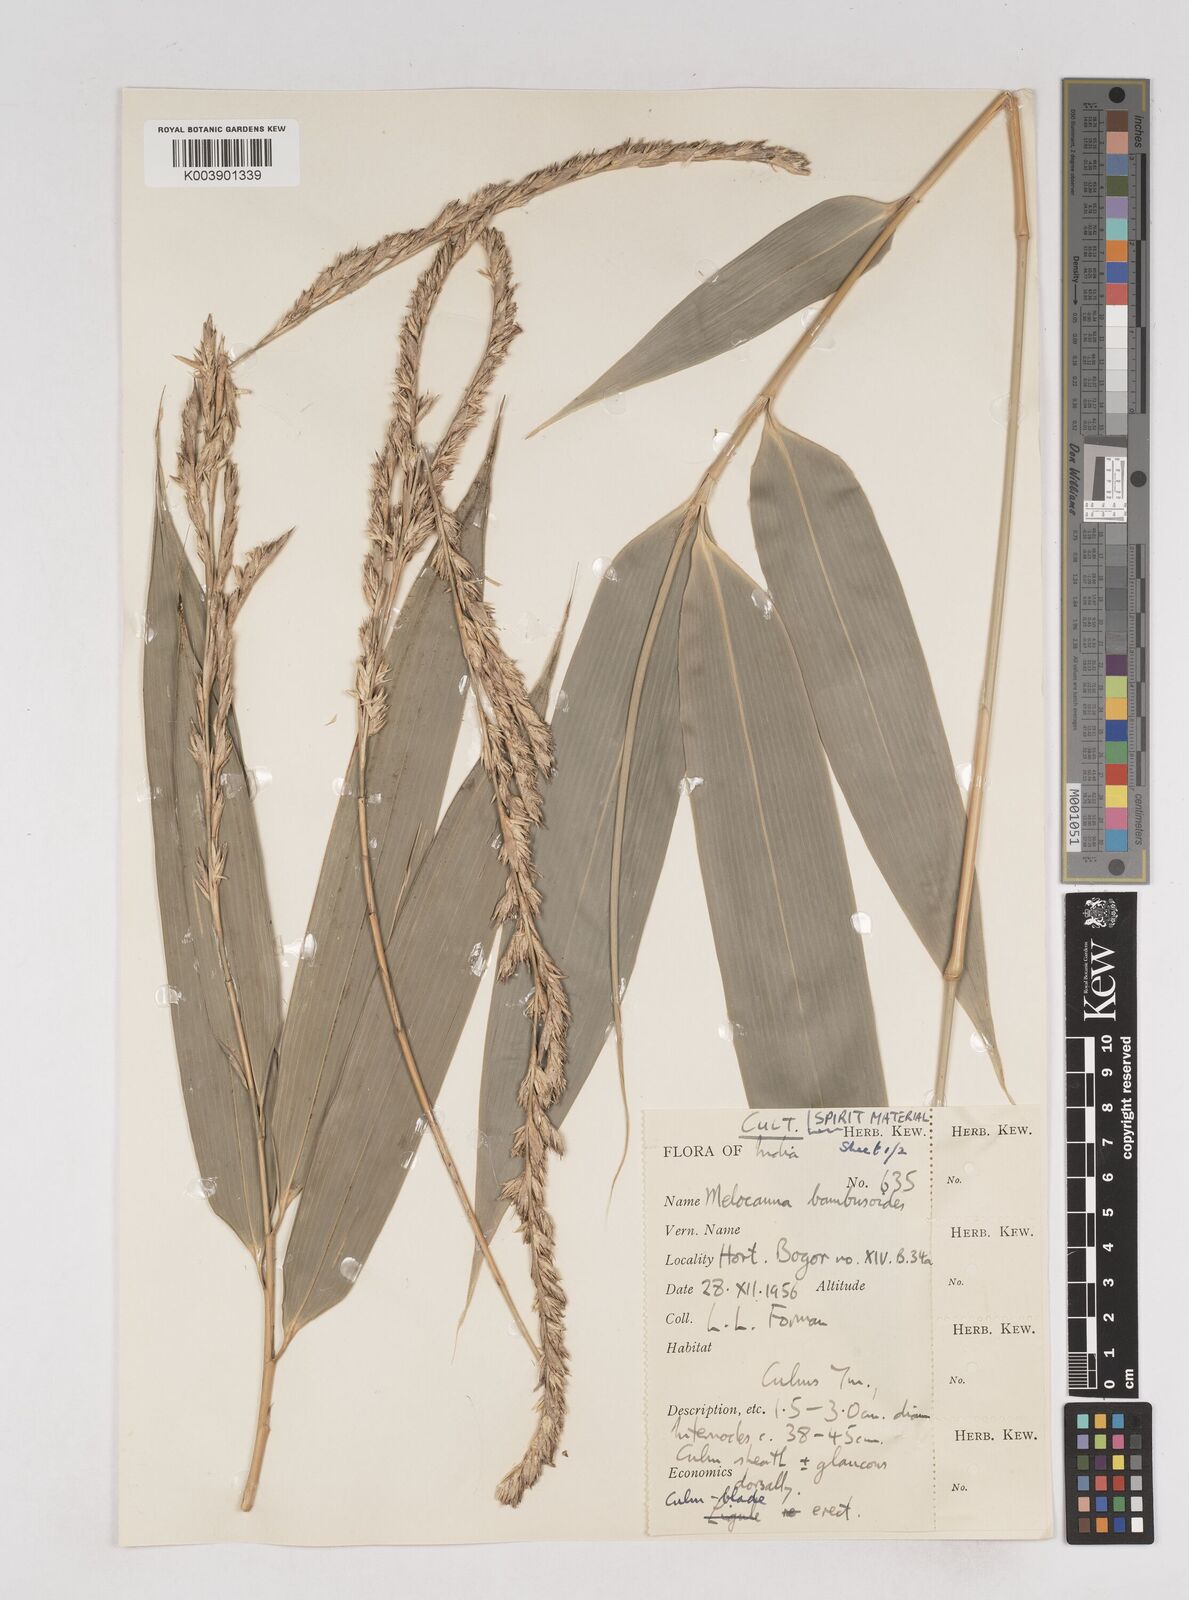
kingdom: Plantae
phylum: Tracheophyta
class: Liliopsida
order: Poales
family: Poaceae
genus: Melocanna
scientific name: Melocanna baccifera
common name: Berry bamboo
